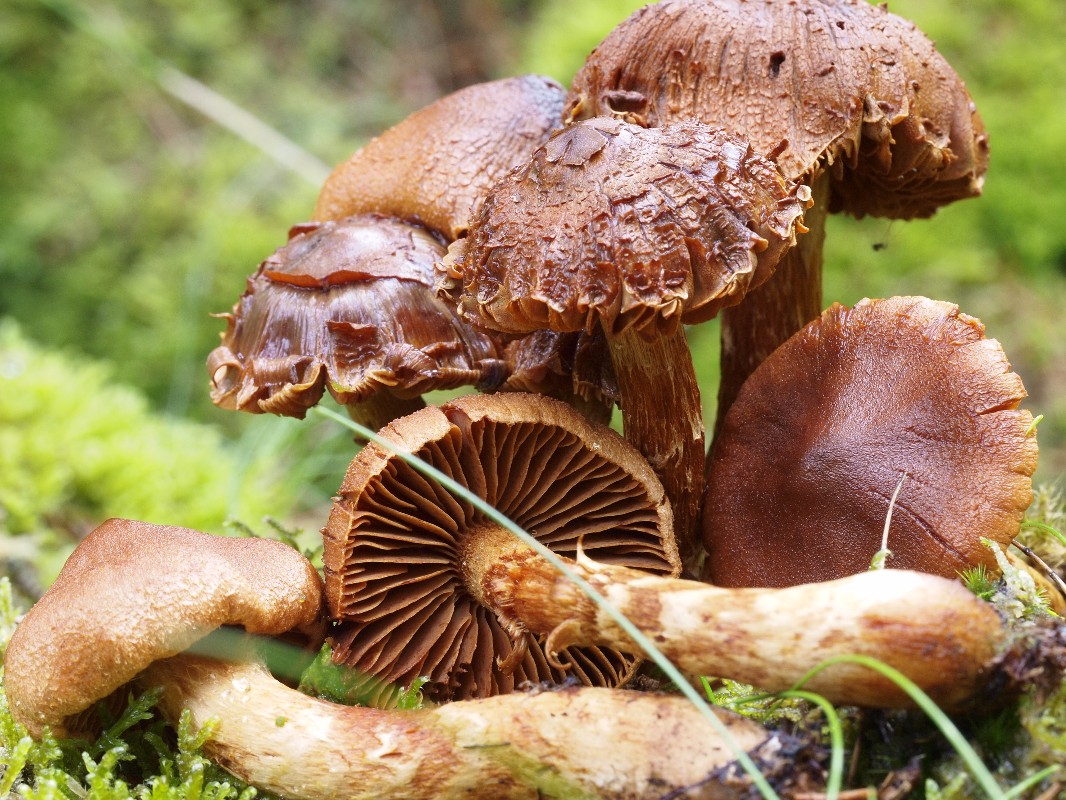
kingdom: Fungi
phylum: Basidiomycota
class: Agaricomycetes
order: Agaricales
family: Cortinariaceae
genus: Cortinarius
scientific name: Cortinarius
